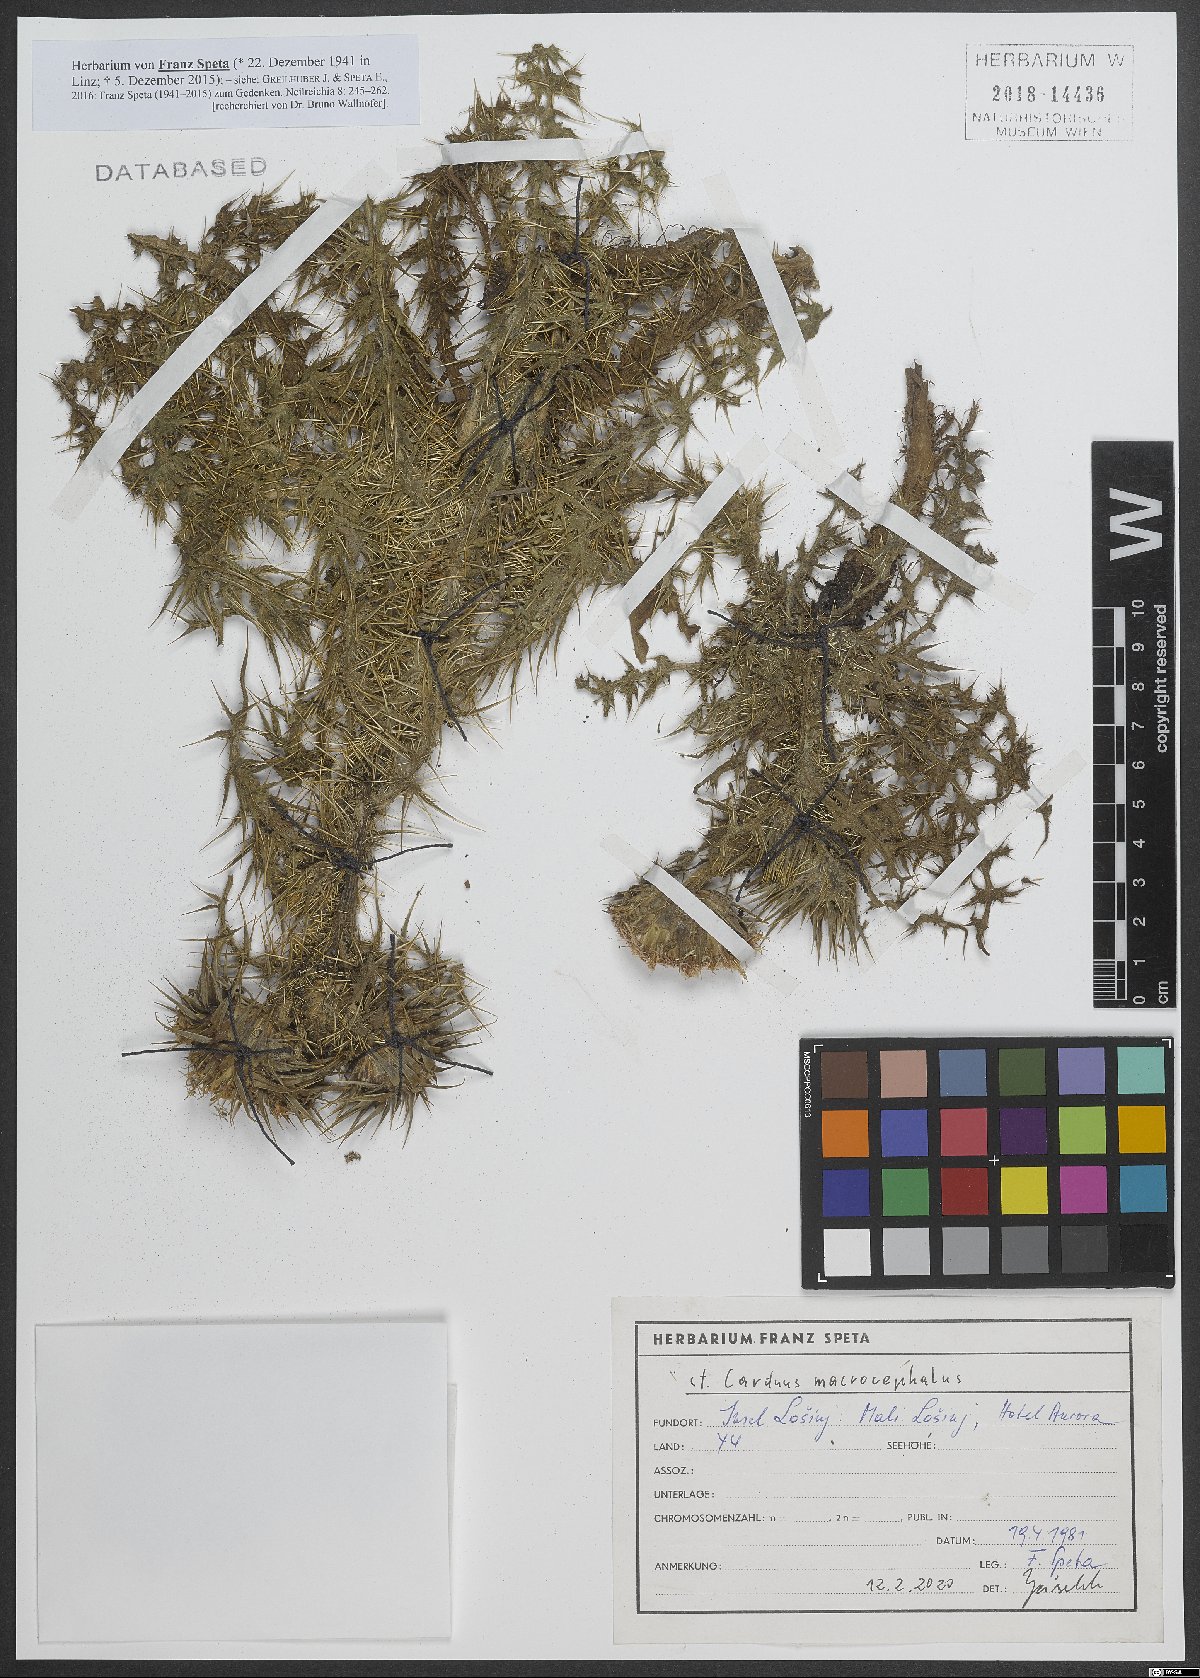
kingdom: Plantae
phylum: Tracheophyta
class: Magnoliopsida
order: Asterales
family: Asteraceae
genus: Carduus
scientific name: Carduus macrocephalus
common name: Giant thistle
